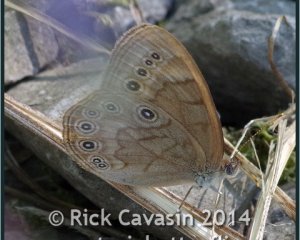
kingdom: Animalia
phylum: Arthropoda
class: Insecta
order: Lepidoptera
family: Nymphalidae
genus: Lethe
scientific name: Lethe eurydice
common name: Eyed Brown
